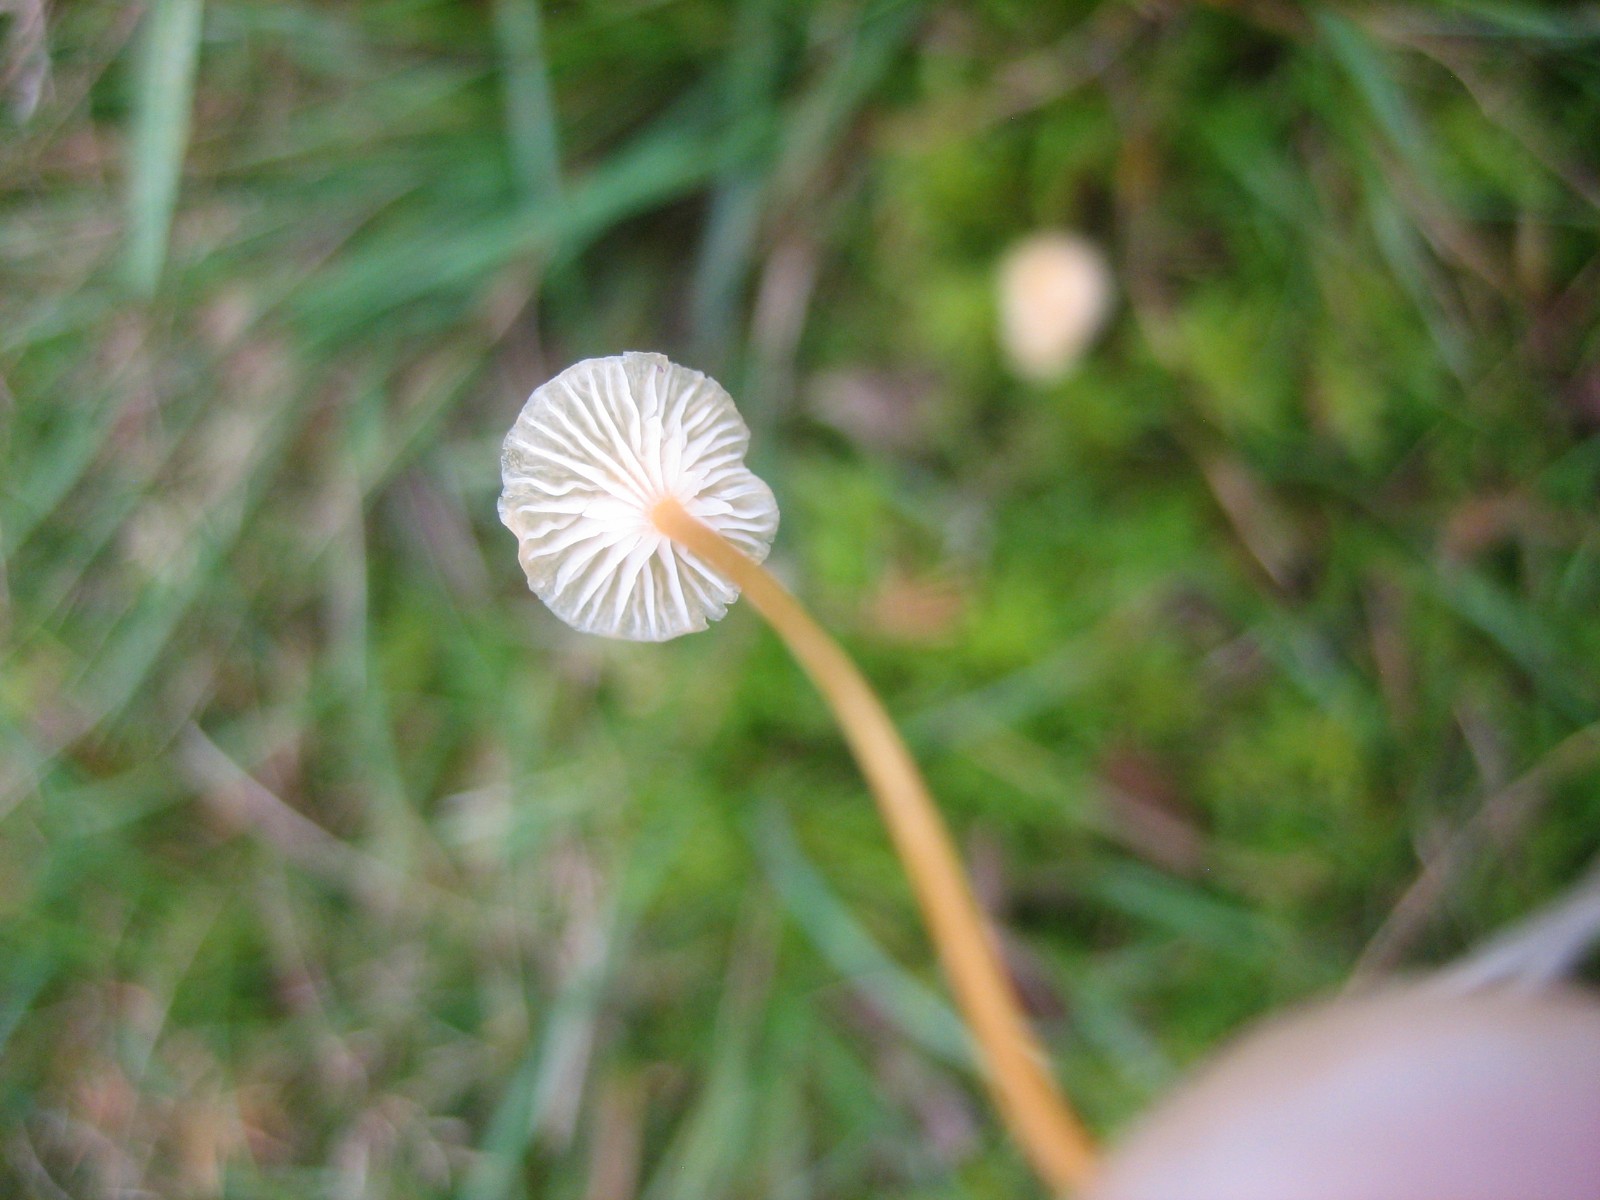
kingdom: Fungi
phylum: Basidiomycota
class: Agaricomycetes
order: Hymenochaetales
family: Rickenellaceae
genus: Rickenella
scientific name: Rickenella fibula
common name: orange mosnavlehat
